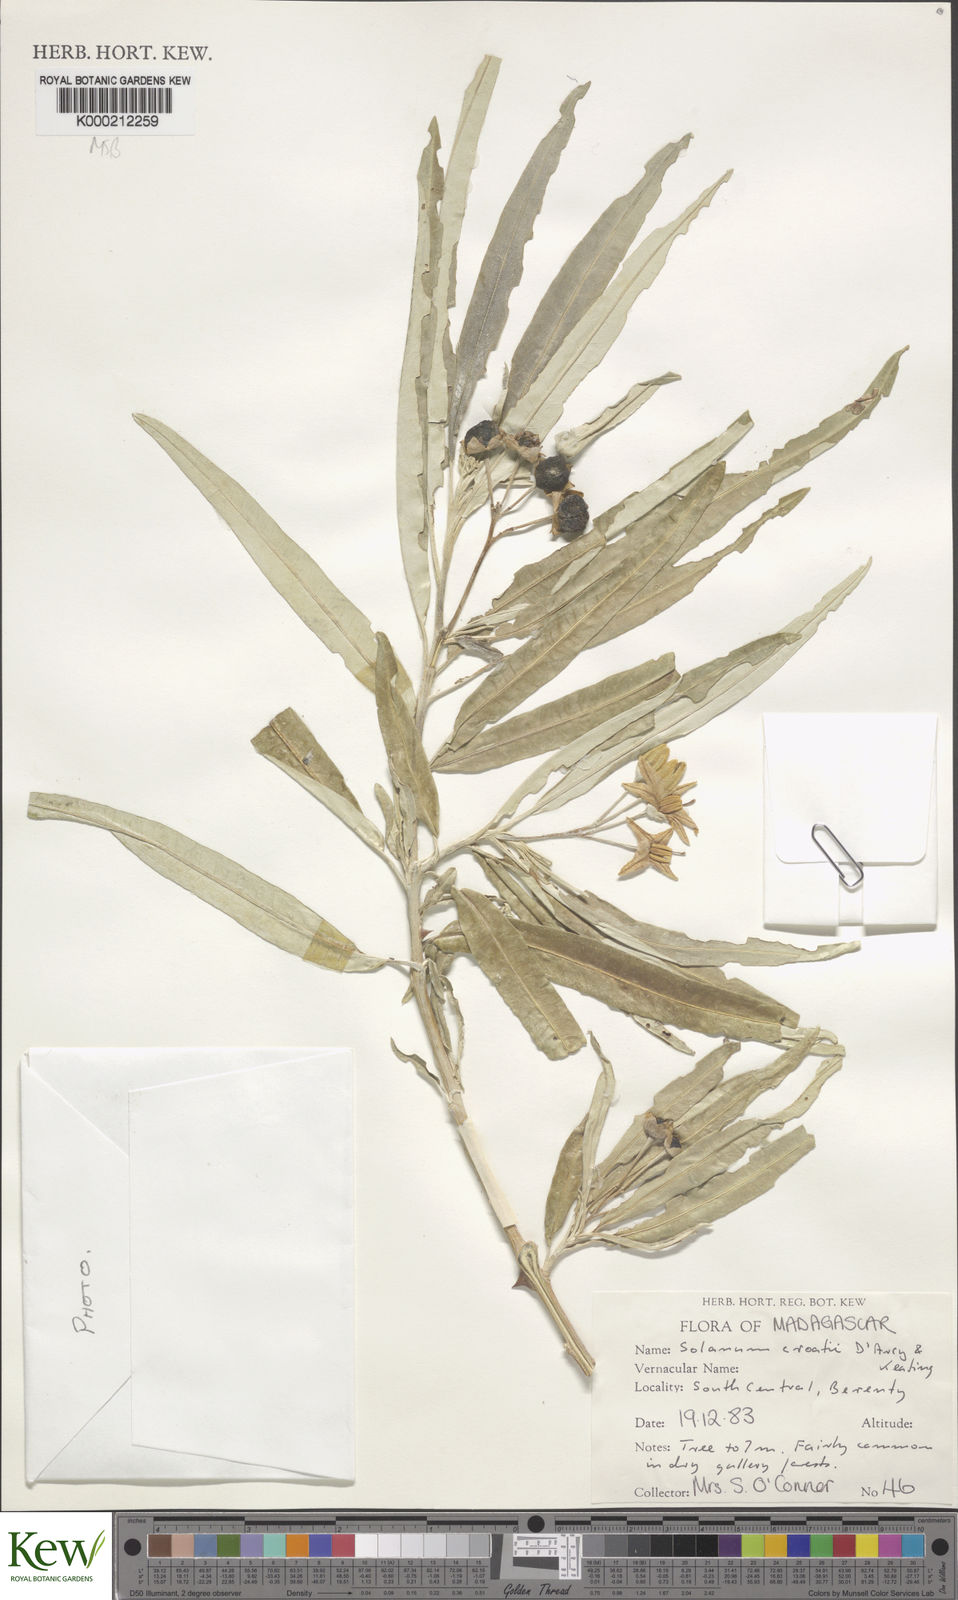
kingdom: Plantae
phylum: Tracheophyta
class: Magnoliopsida
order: Solanales
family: Solanaceae
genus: Solanum
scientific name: Solanum croatii
